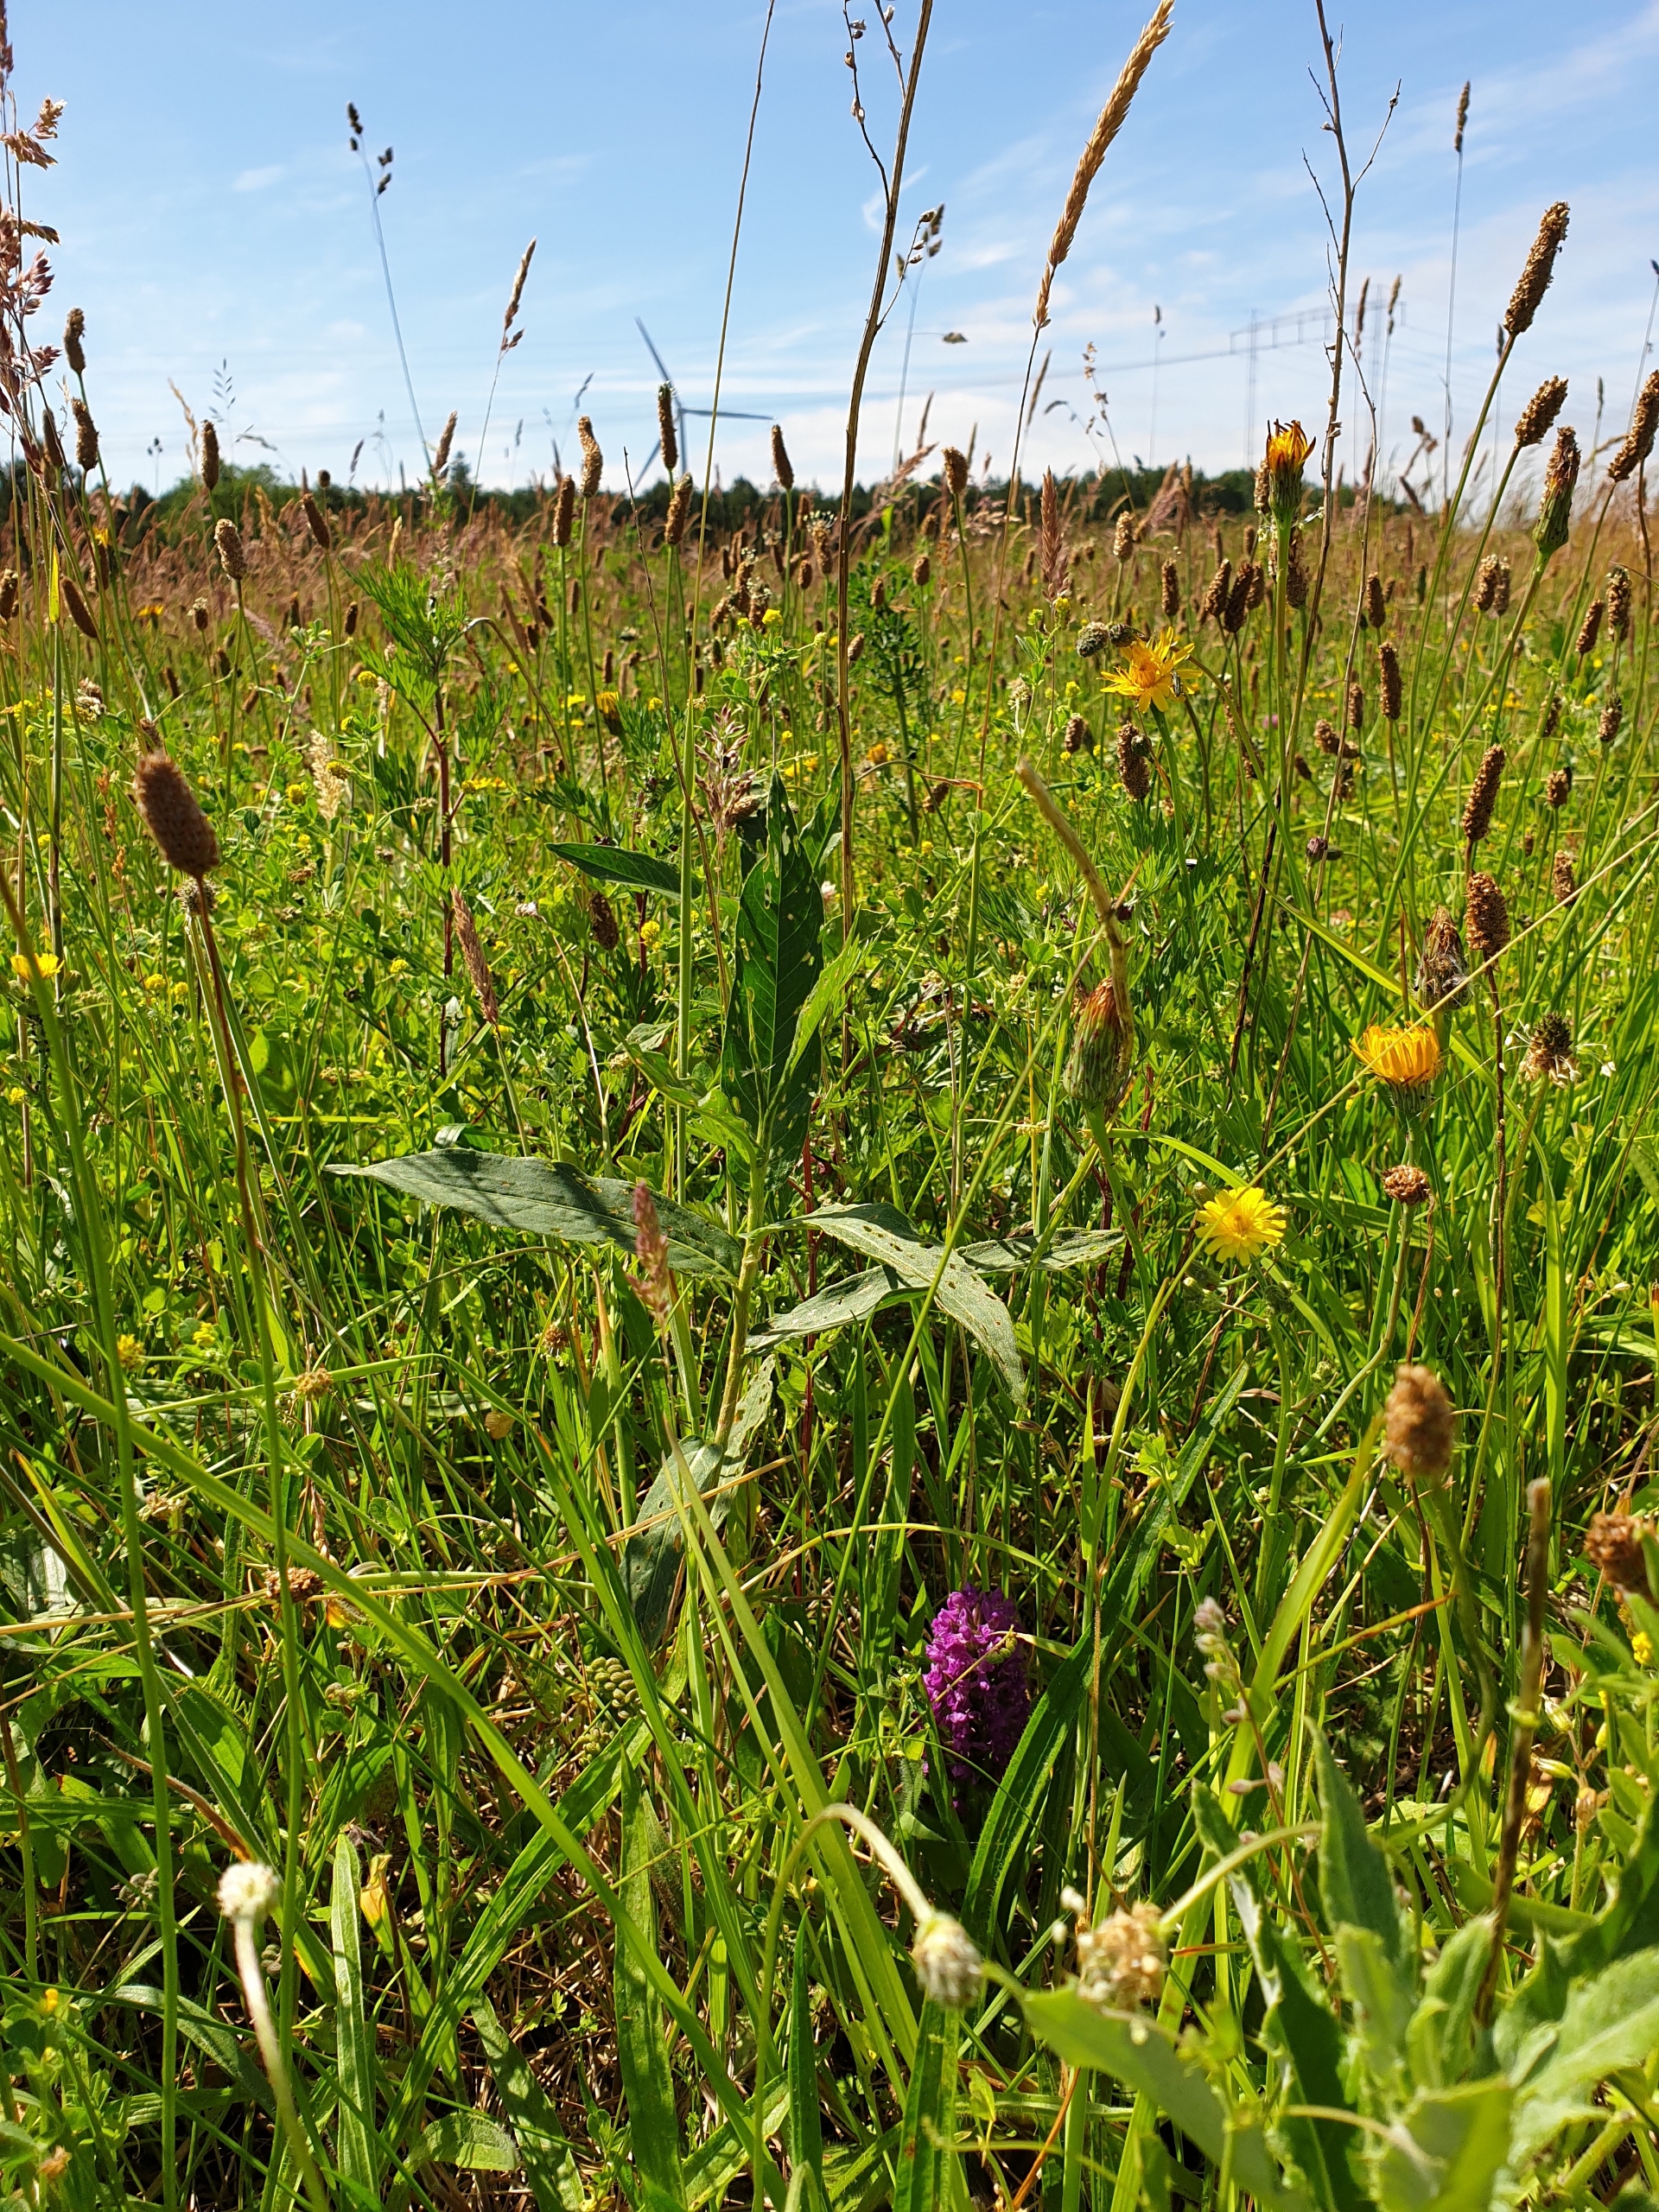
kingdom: Plantae
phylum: Tracheophyta
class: Liliopsida
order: Asparagales
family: Orchidaceae
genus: Dactylorhiza
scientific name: Dactylorhiza majalis
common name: Purpur-gøgeurt
